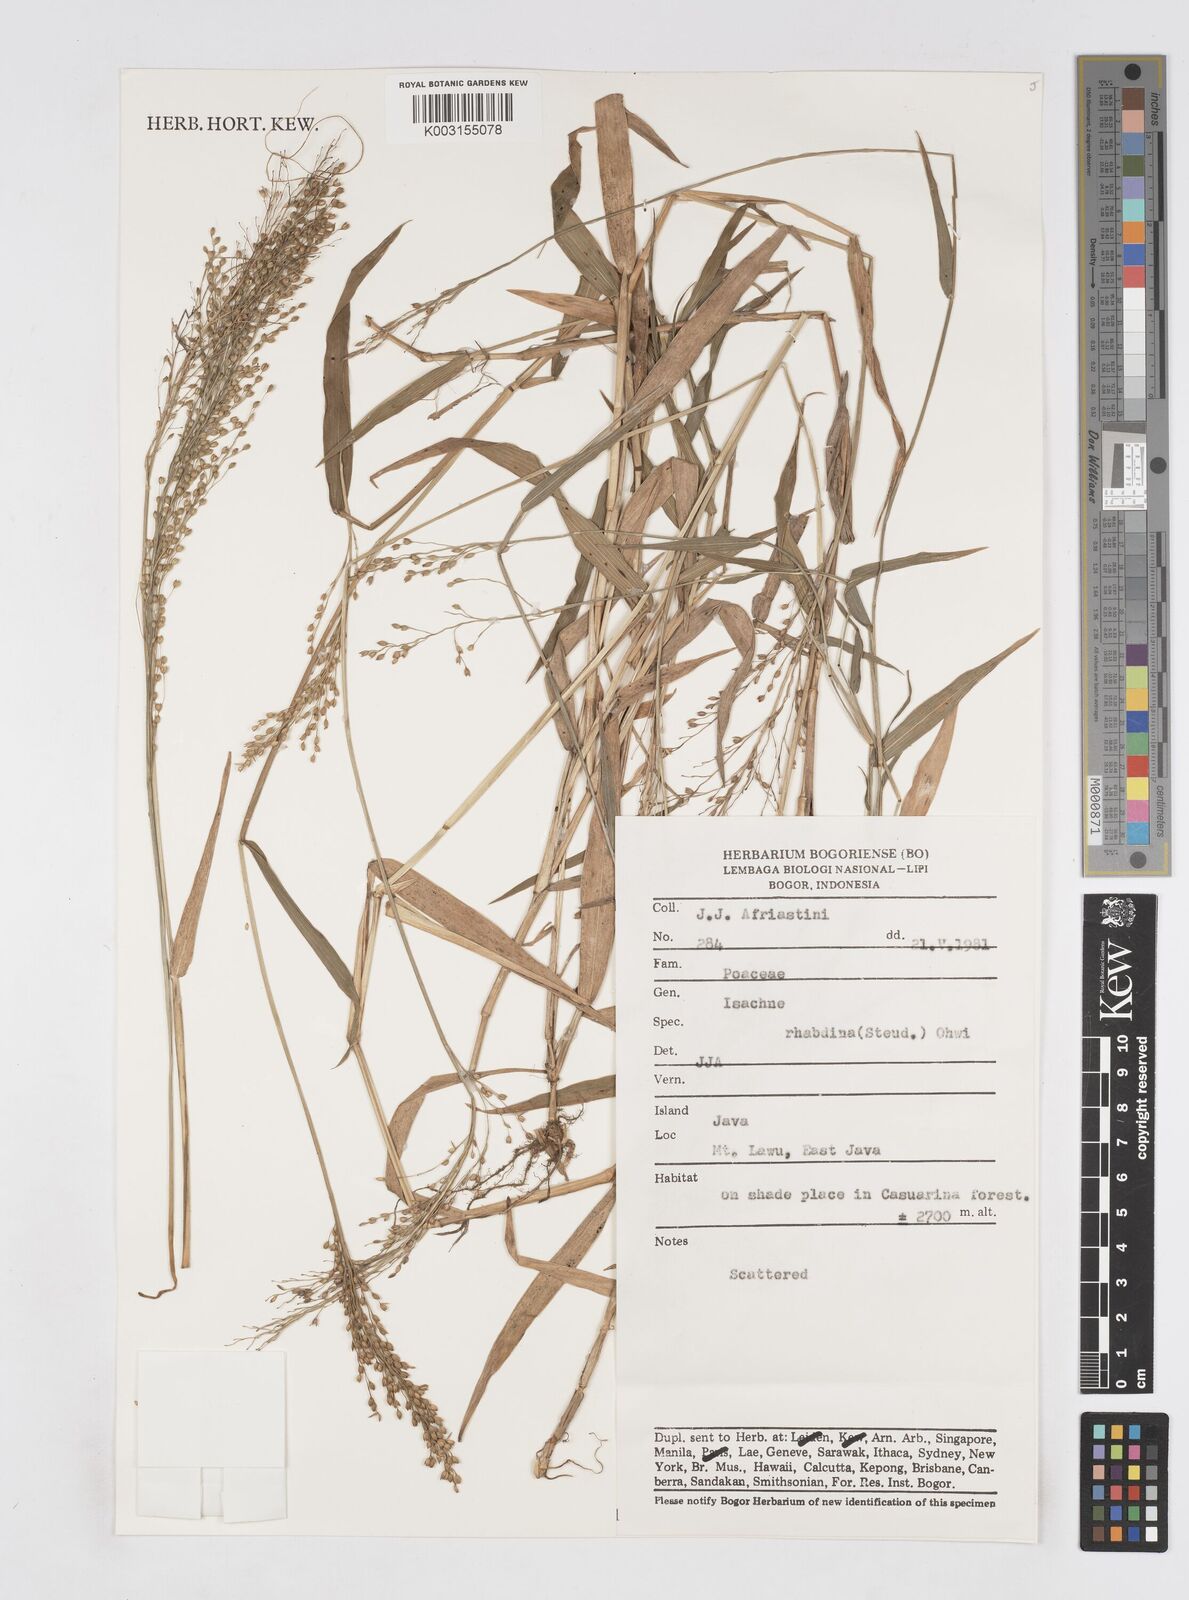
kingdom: Plantae
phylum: Tracheophyta
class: Liliopsida
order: Poales
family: Poaceae
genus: Isachne
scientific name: Isachne pangerangensis
